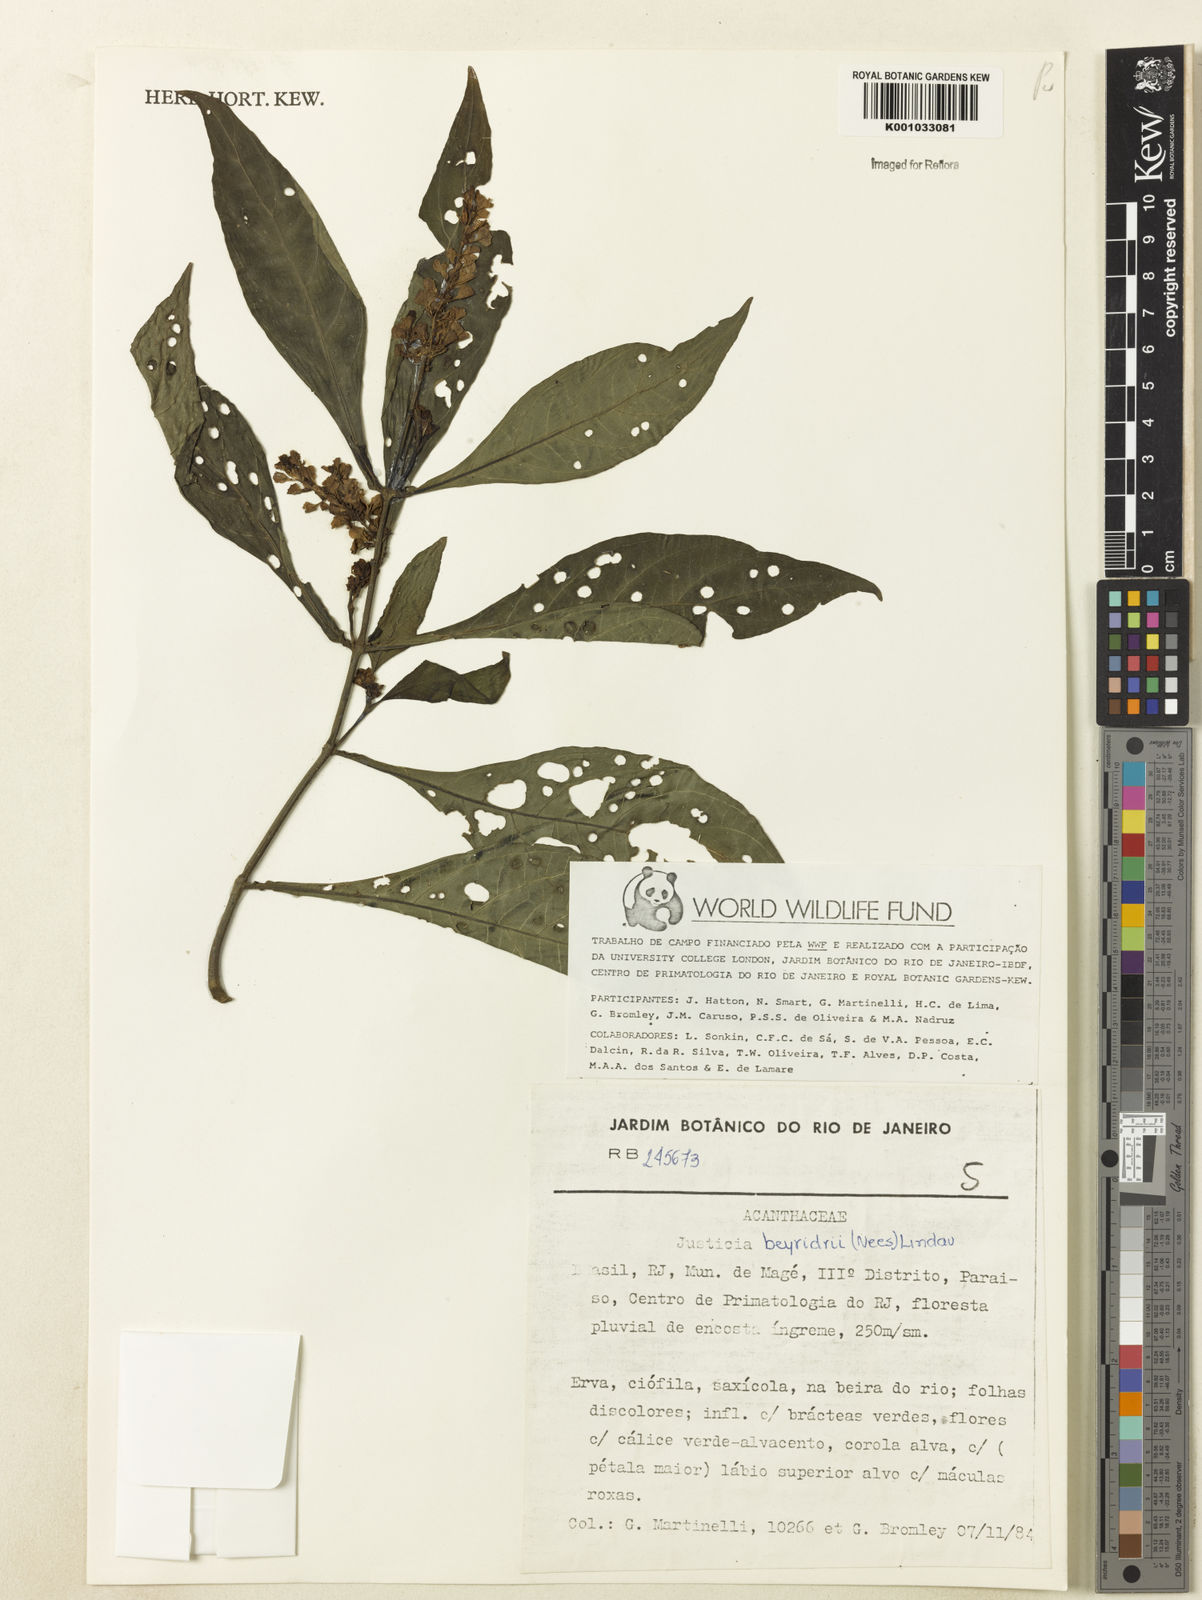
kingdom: Plantae
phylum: Tracheophyta
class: Magnoliopsida
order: Lamiales
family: Acanthaceae
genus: Dianthera
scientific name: Dianthera brasiliensis
